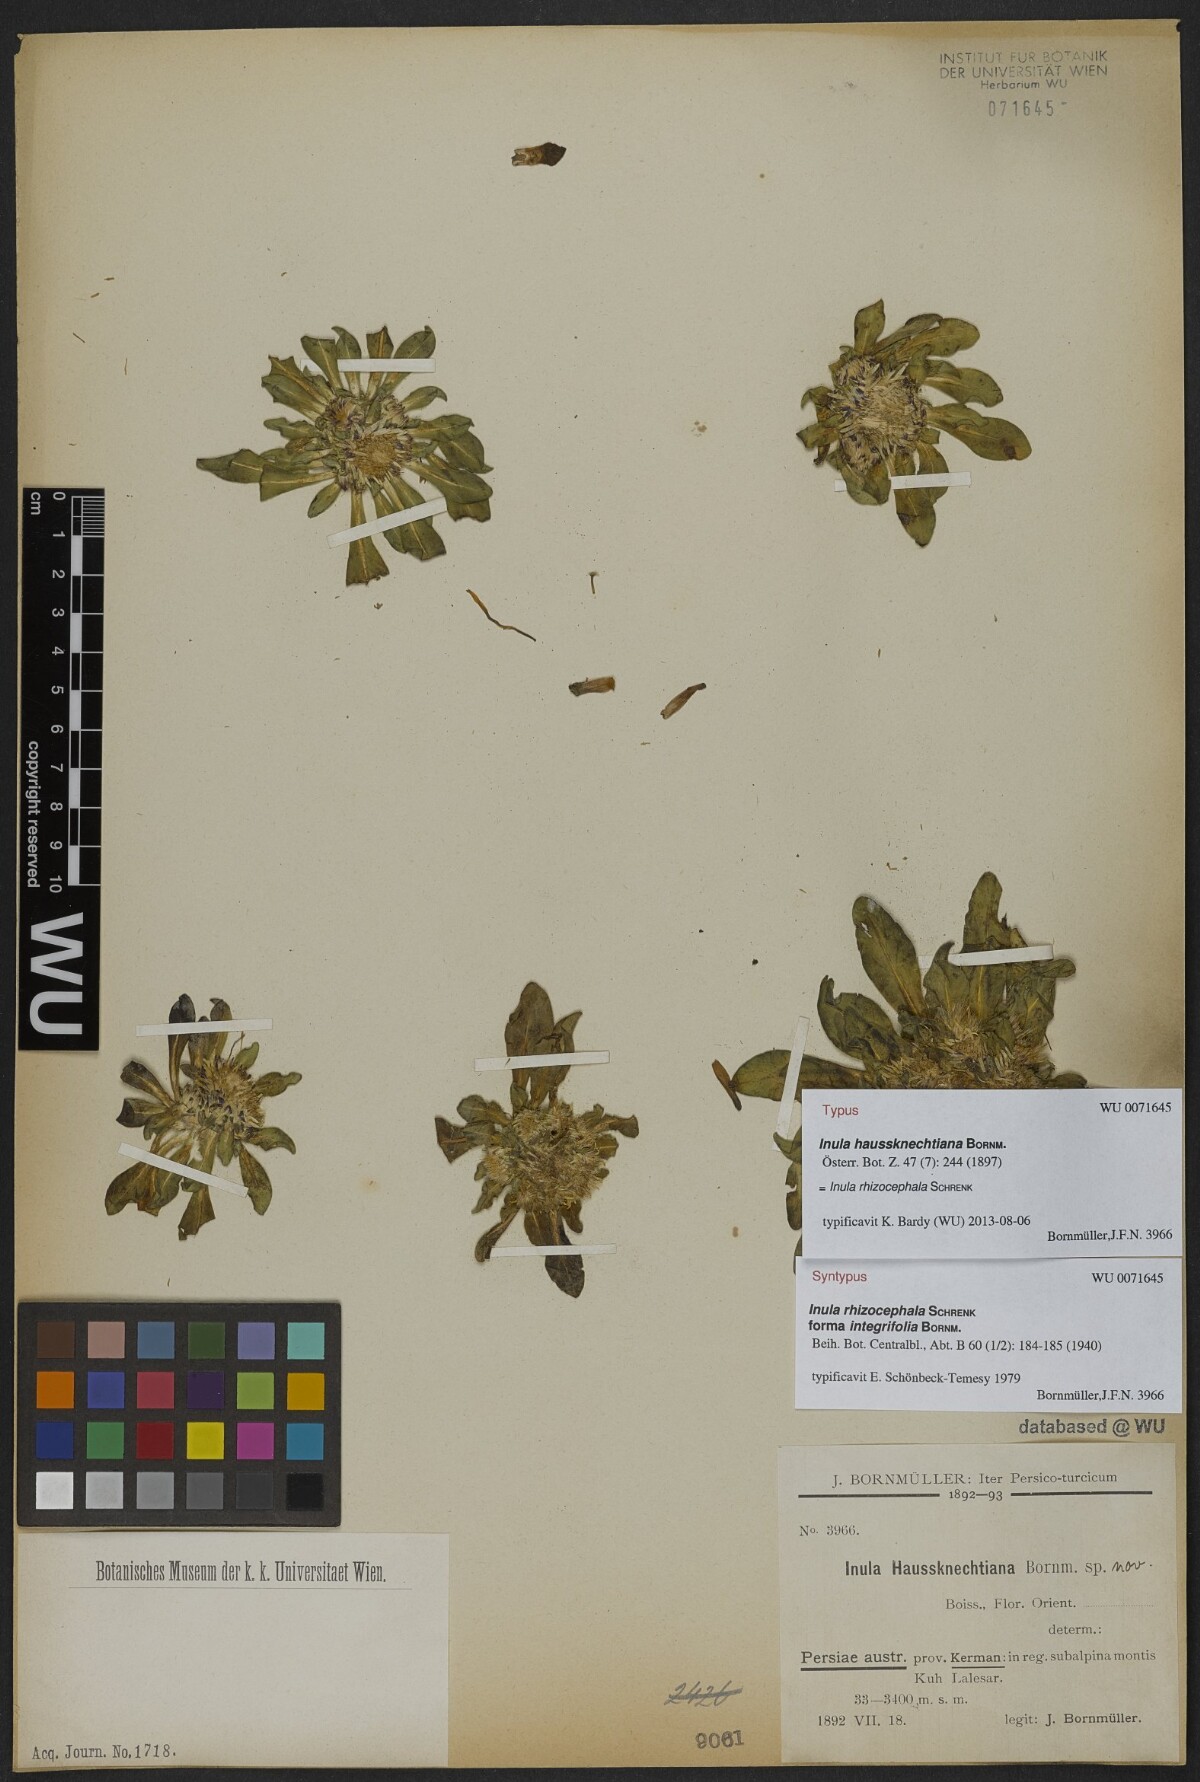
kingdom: Plantae
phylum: Tracheophyta
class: Magnoliopsida
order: Asterales
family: Asteraceae
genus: Inula
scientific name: Inula rhizocephala
